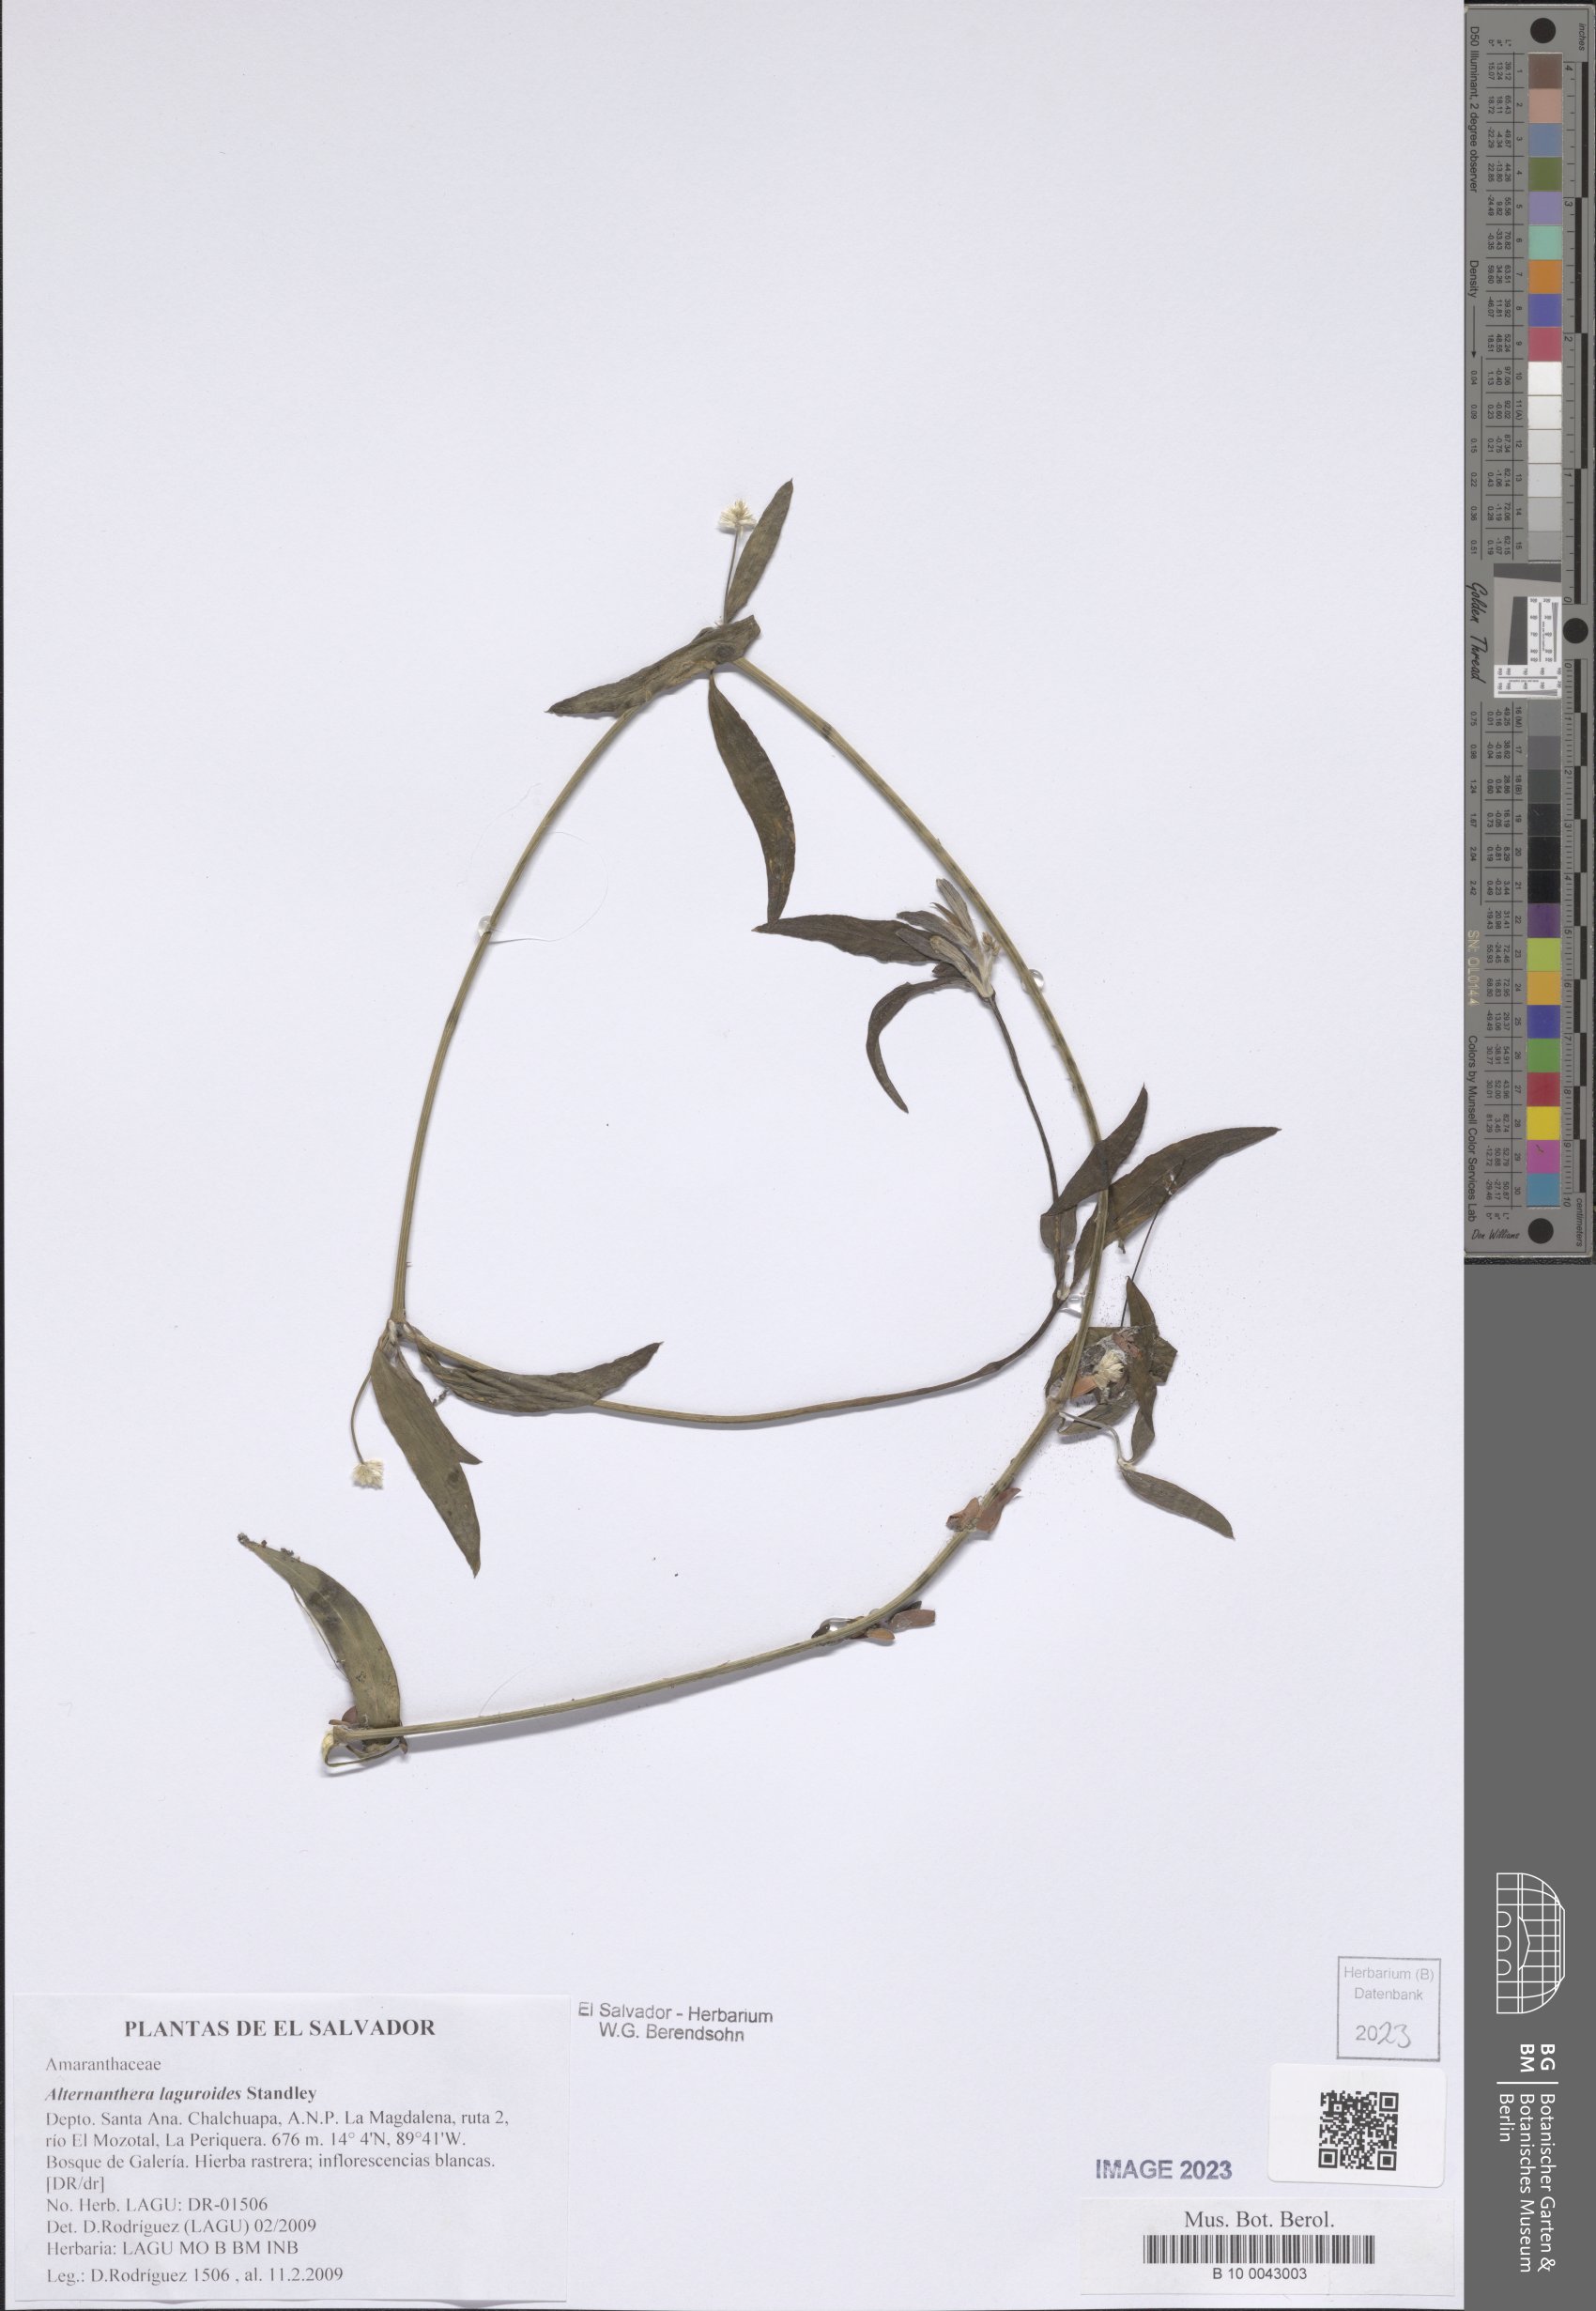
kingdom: Plantae
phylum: Tracheophyta
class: Magnoliopsida
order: Caryophyllales
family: Amaranthaceae
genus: Alternanthera
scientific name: Alternanthera laguroides
